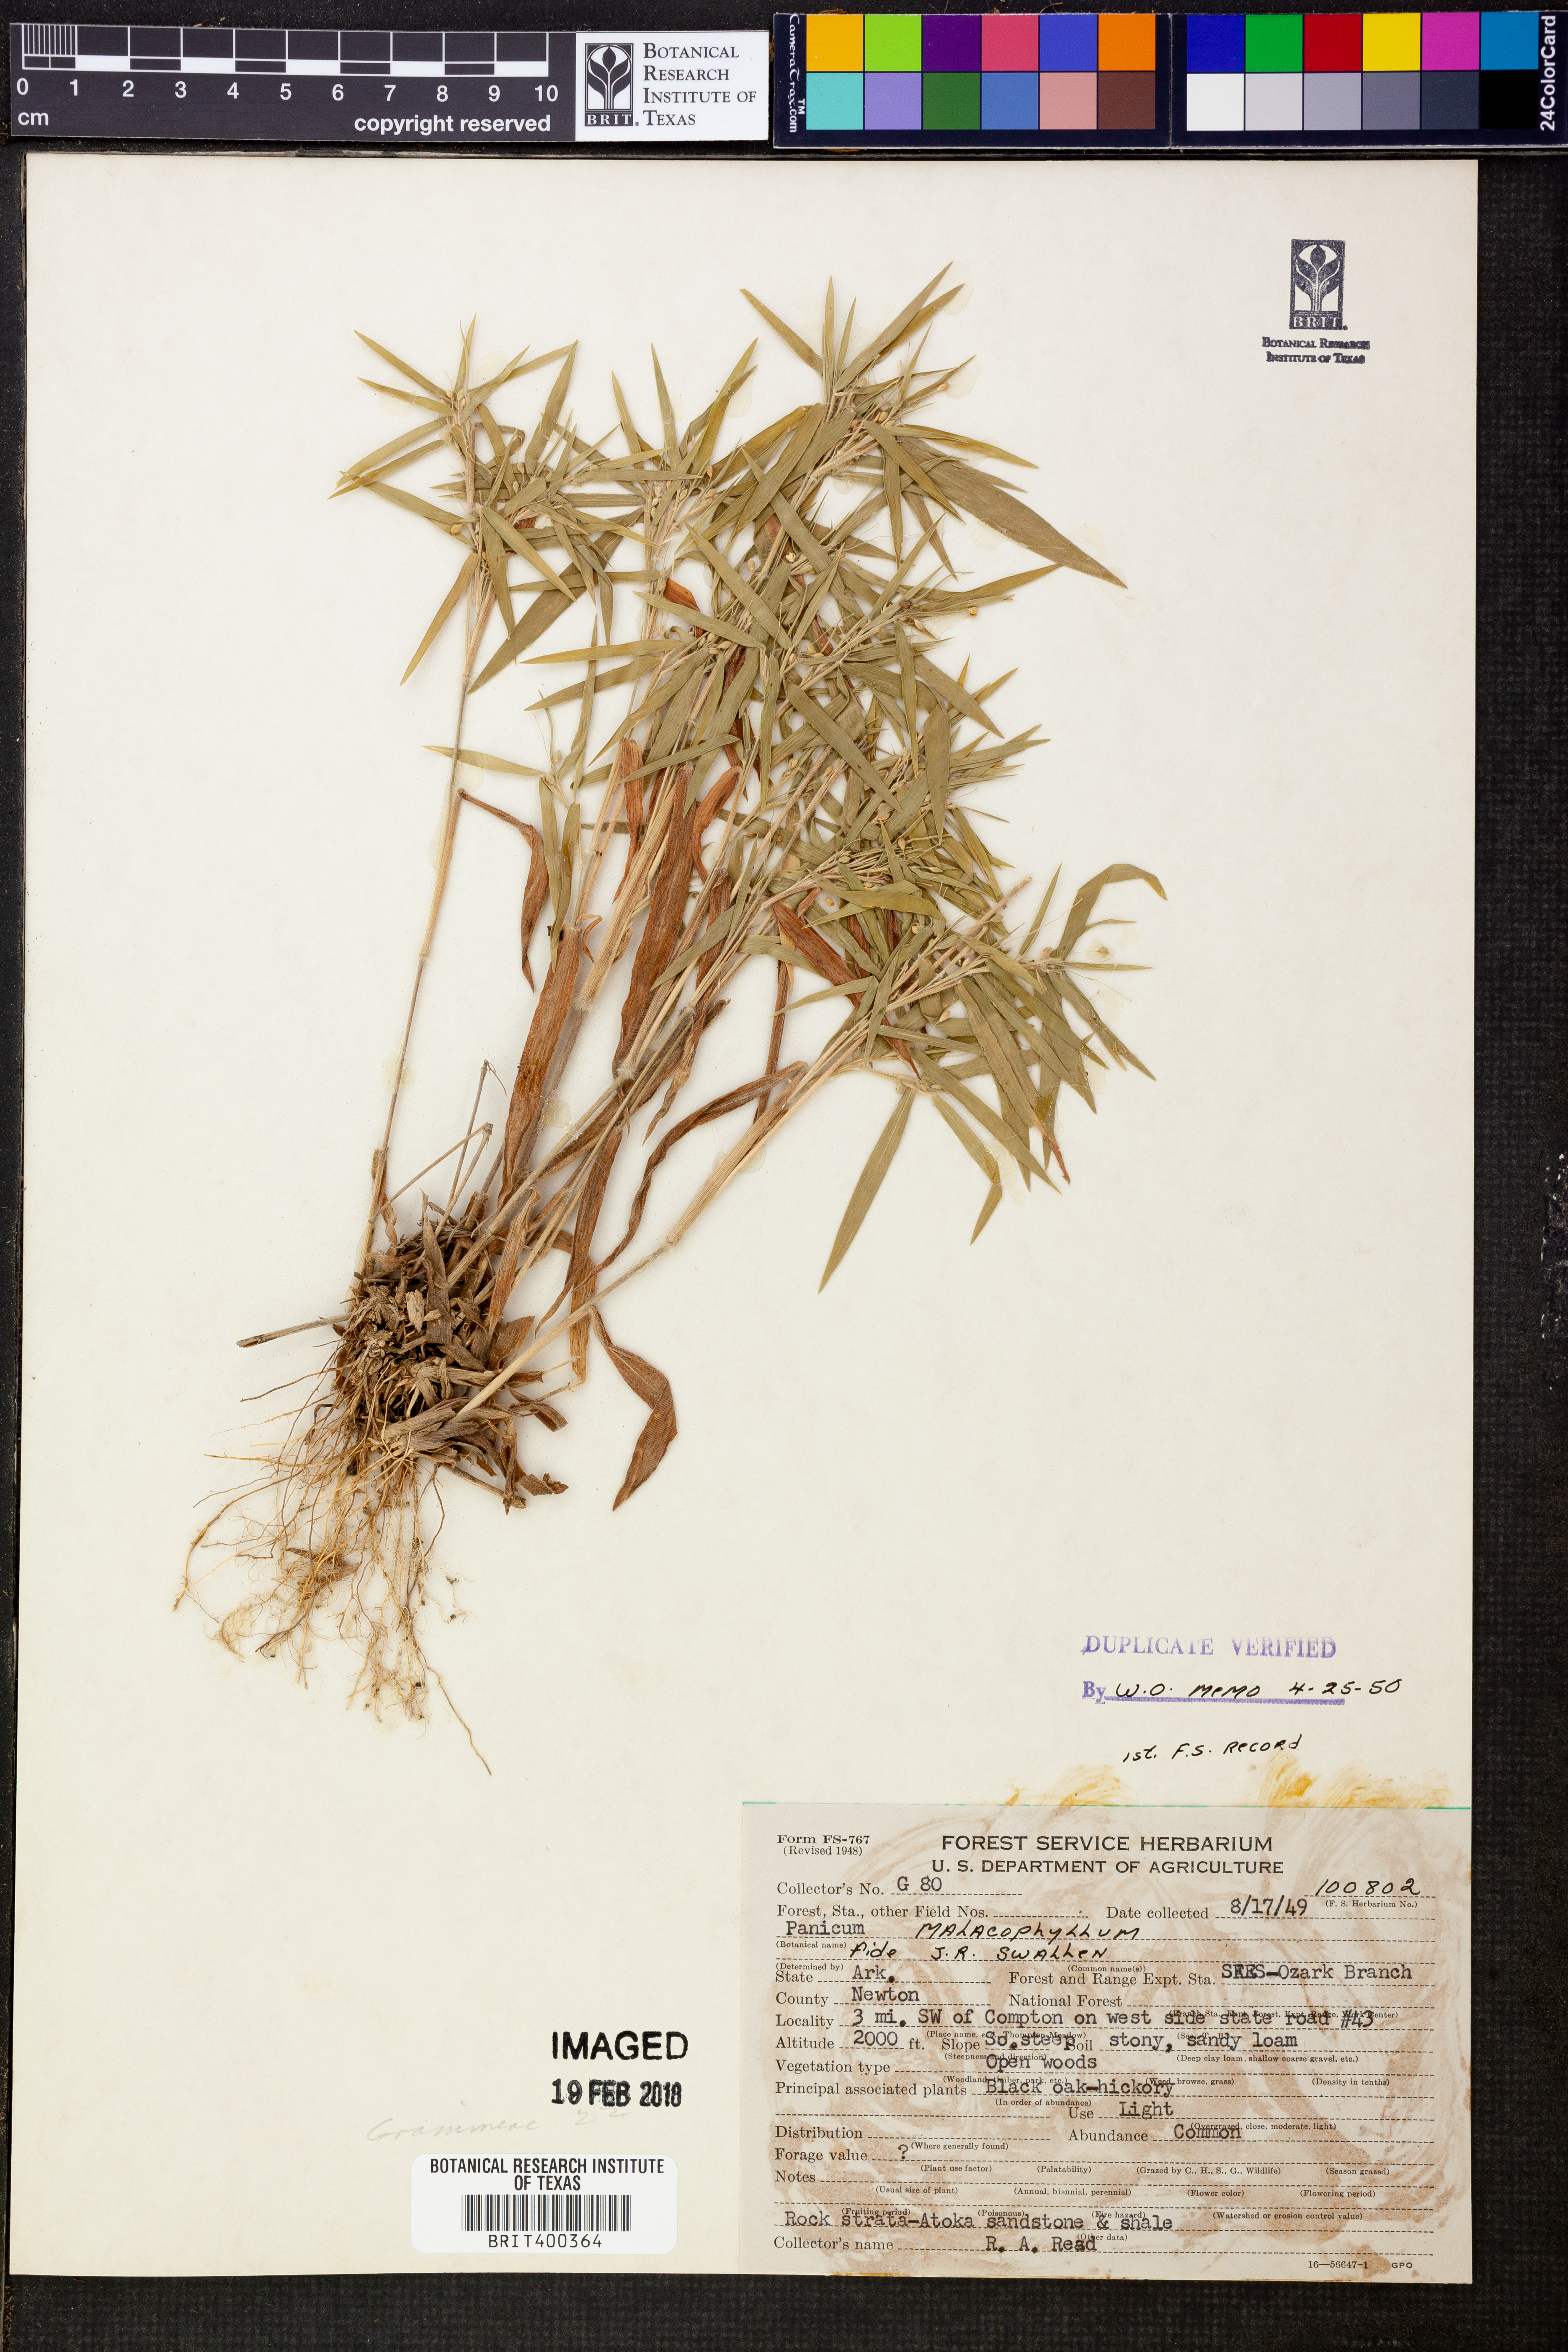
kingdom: Plantae
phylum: Tracheophyta
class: Liliopsida
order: Poales
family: Poaceae
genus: Dichanthelium
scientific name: Dichanthelium malacophyllum
